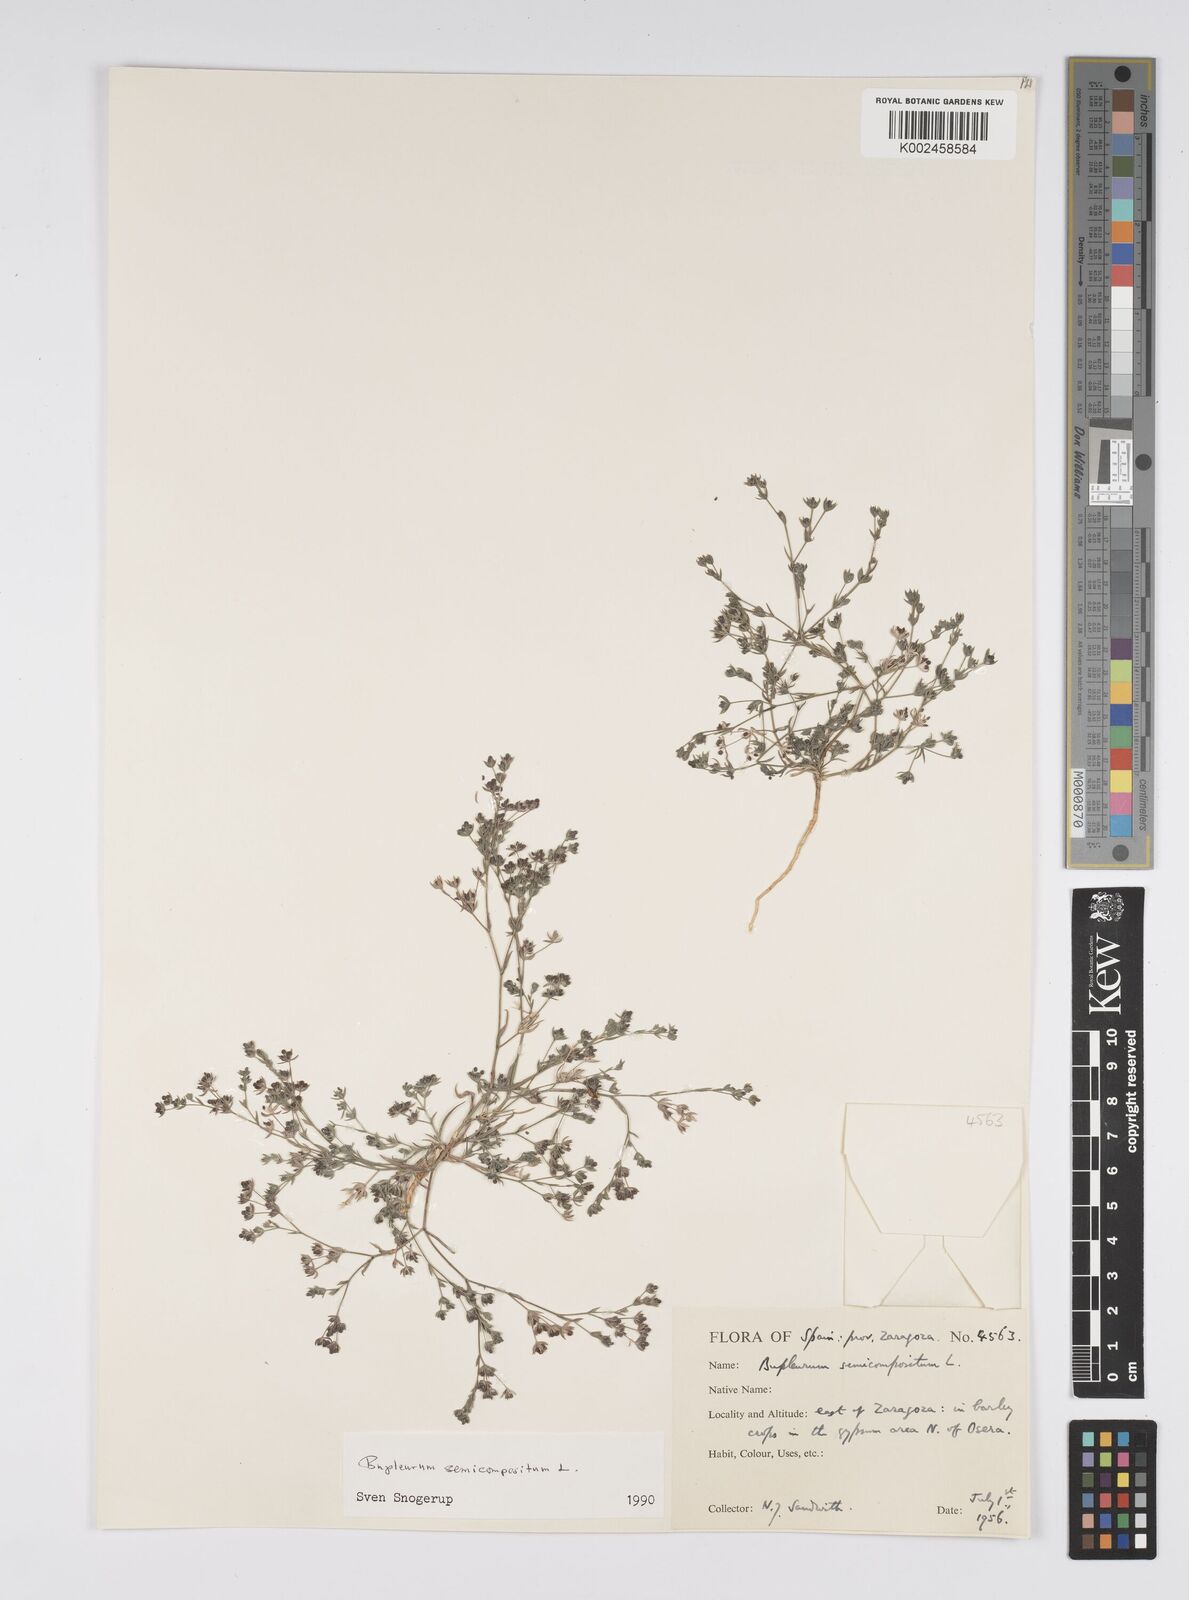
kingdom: Plantae
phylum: Tracheophyta
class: Magnoliopsida
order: Apiales
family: Apiaceae
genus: Bupleurum
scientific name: Bupleurum semicompositum
